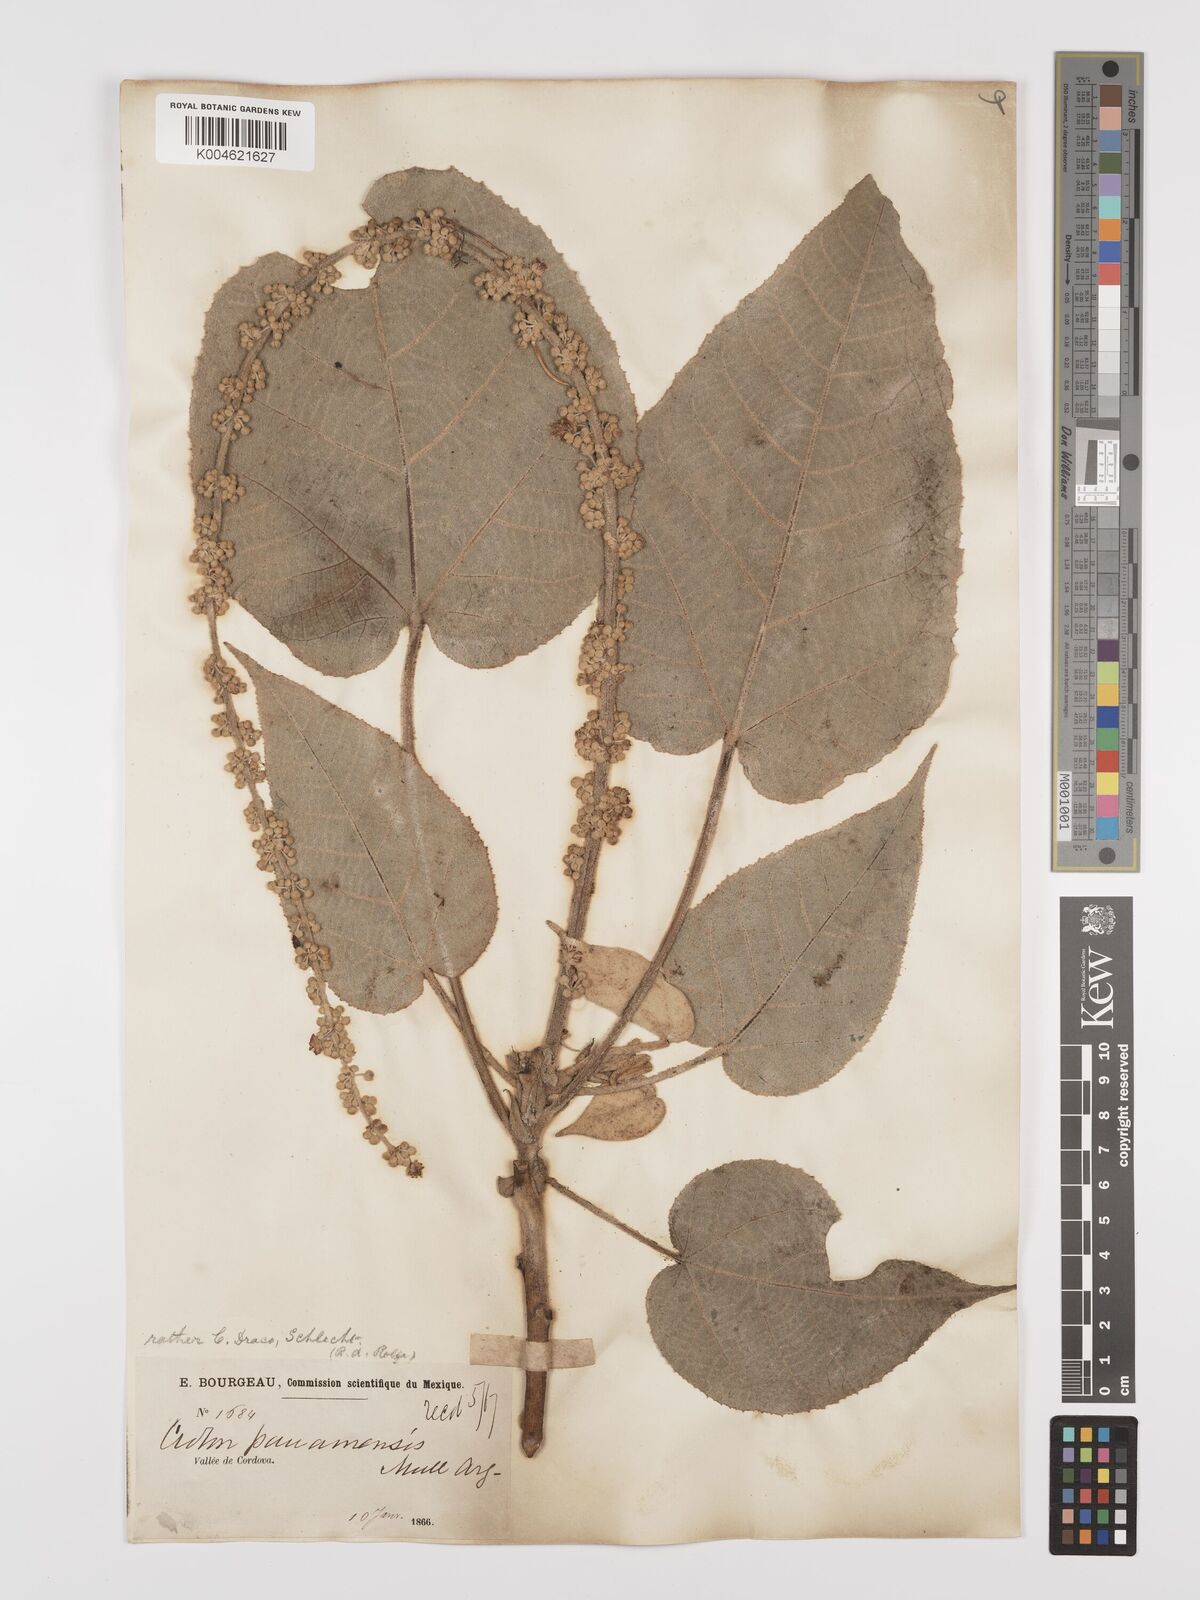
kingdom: Plantae
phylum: Tracheophyta
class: Magnoliopsida
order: Malpighiales
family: Euphorbiaceae
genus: Croton
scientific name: Croton draco
